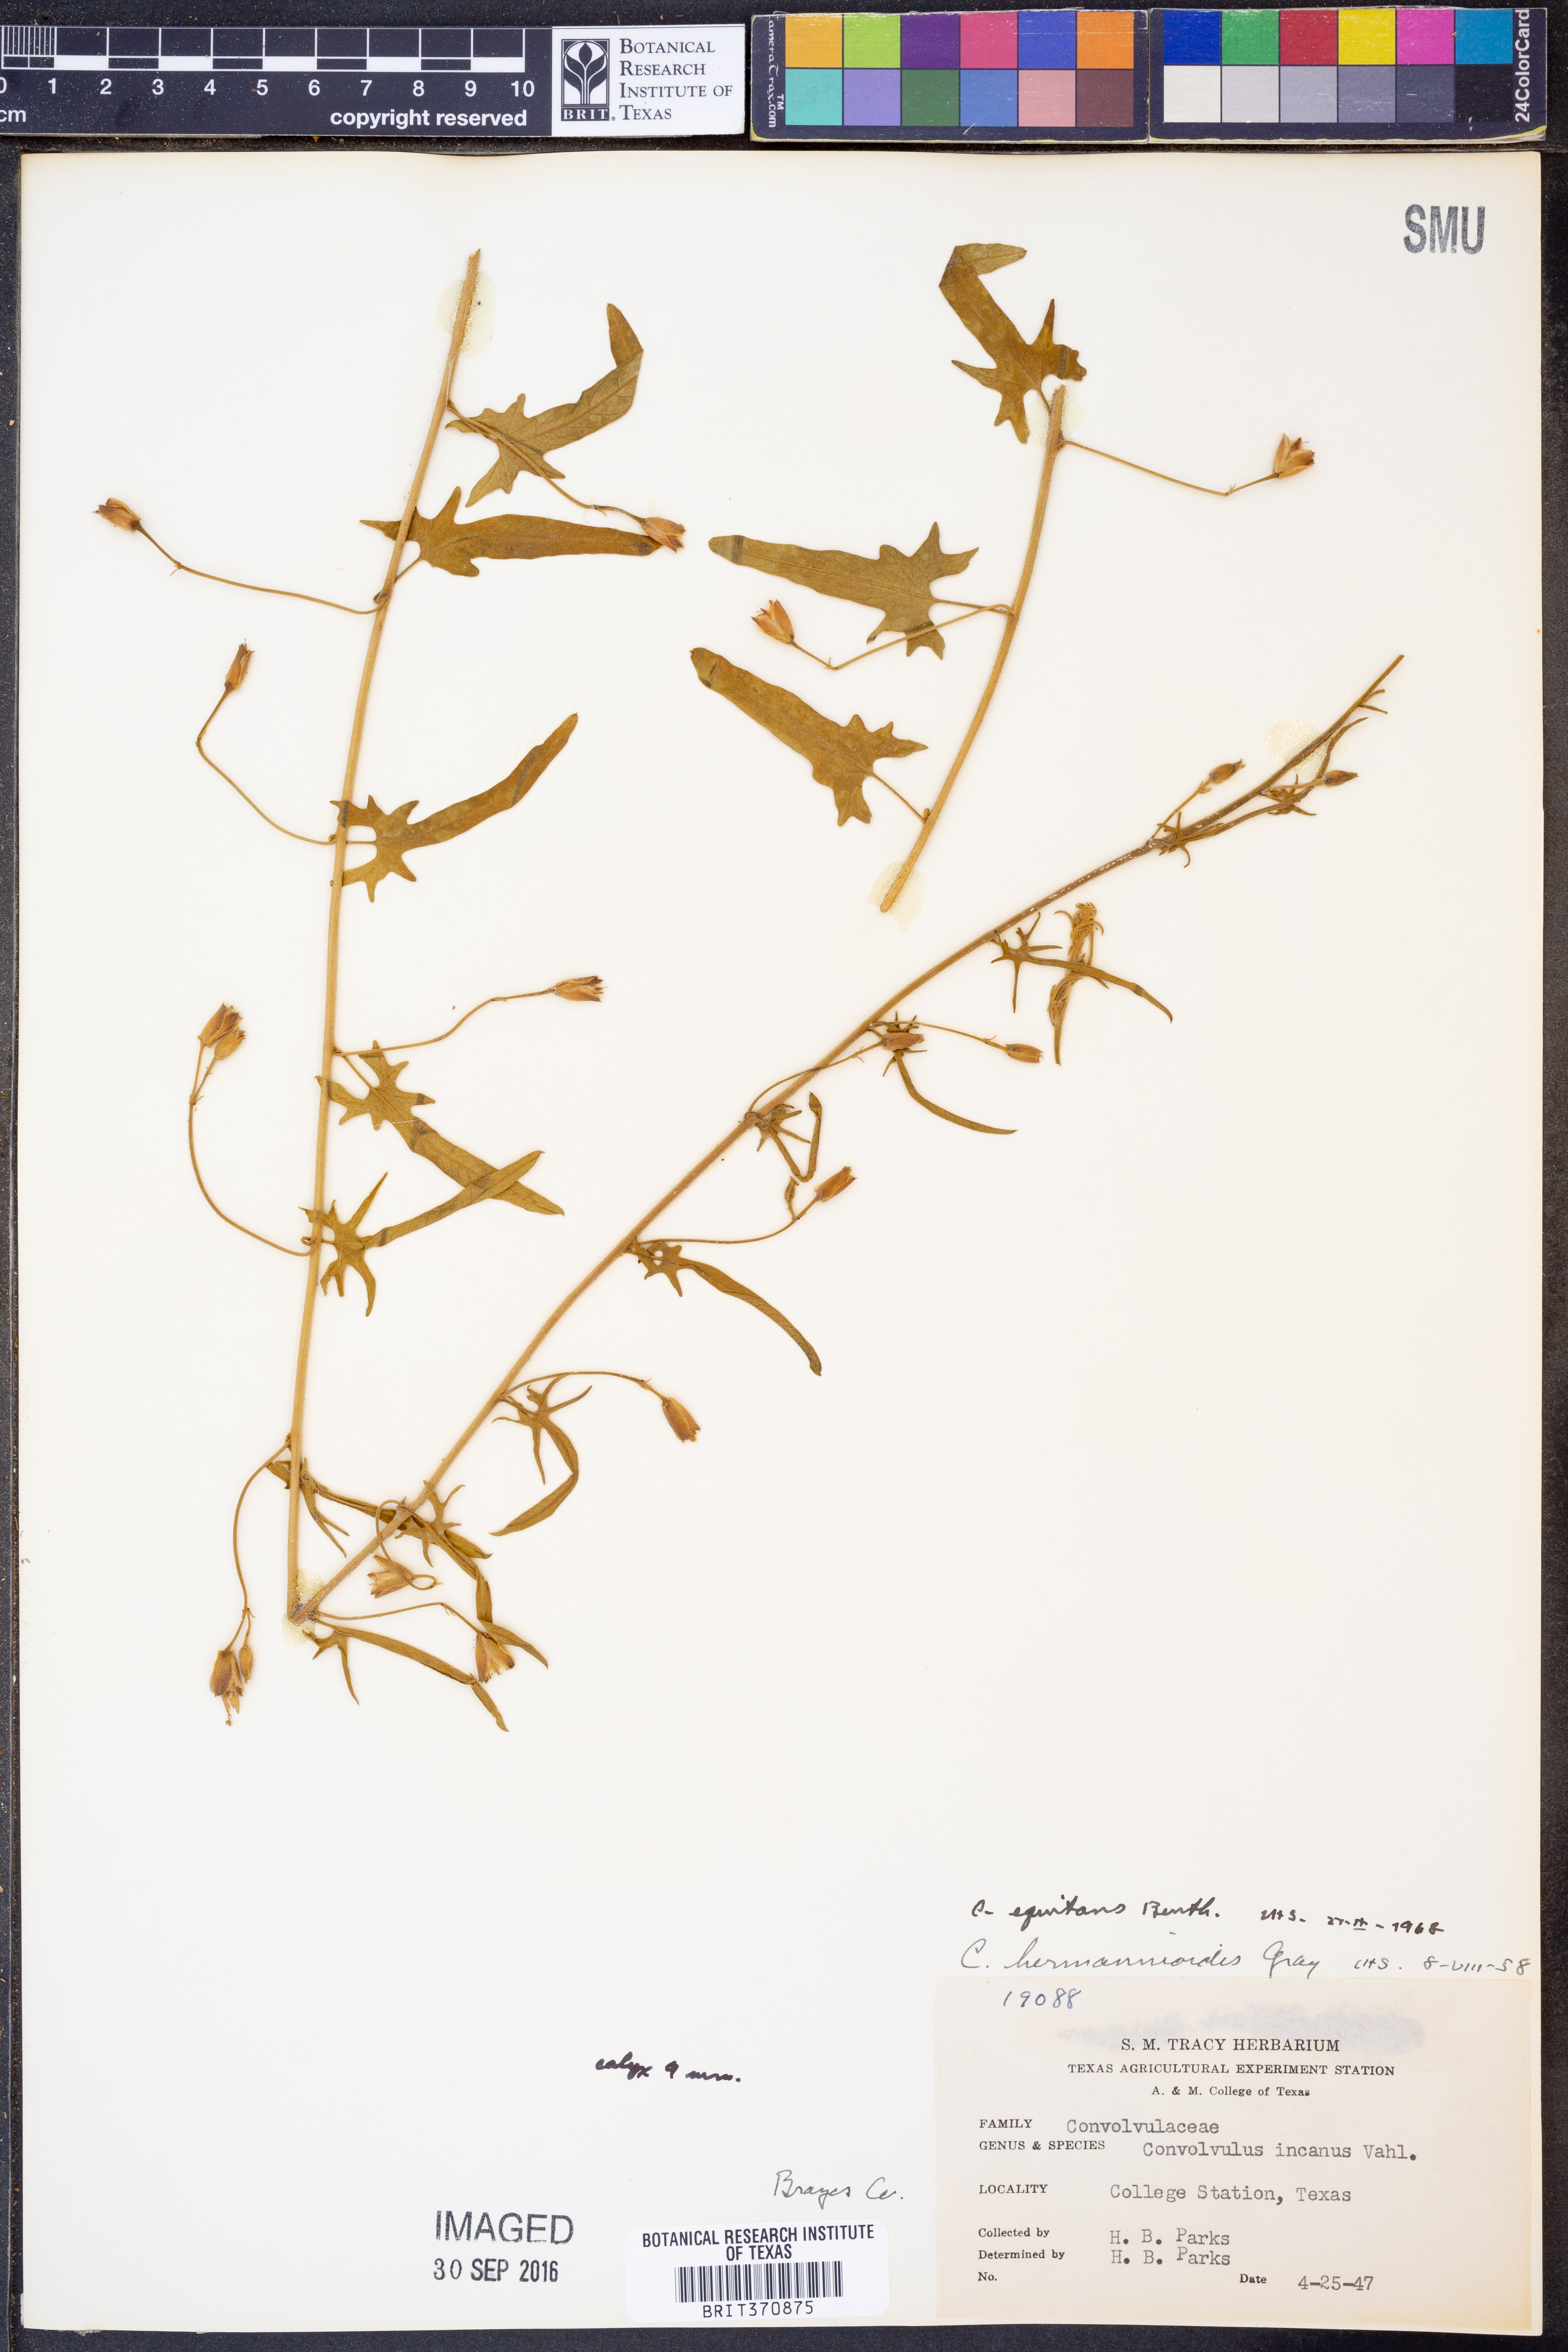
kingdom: Plantae
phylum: Tracheophyta
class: Magnoliopsida
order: Solanales
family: Convolvulaceae
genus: Convolvulus
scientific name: Convolvulus equitans
